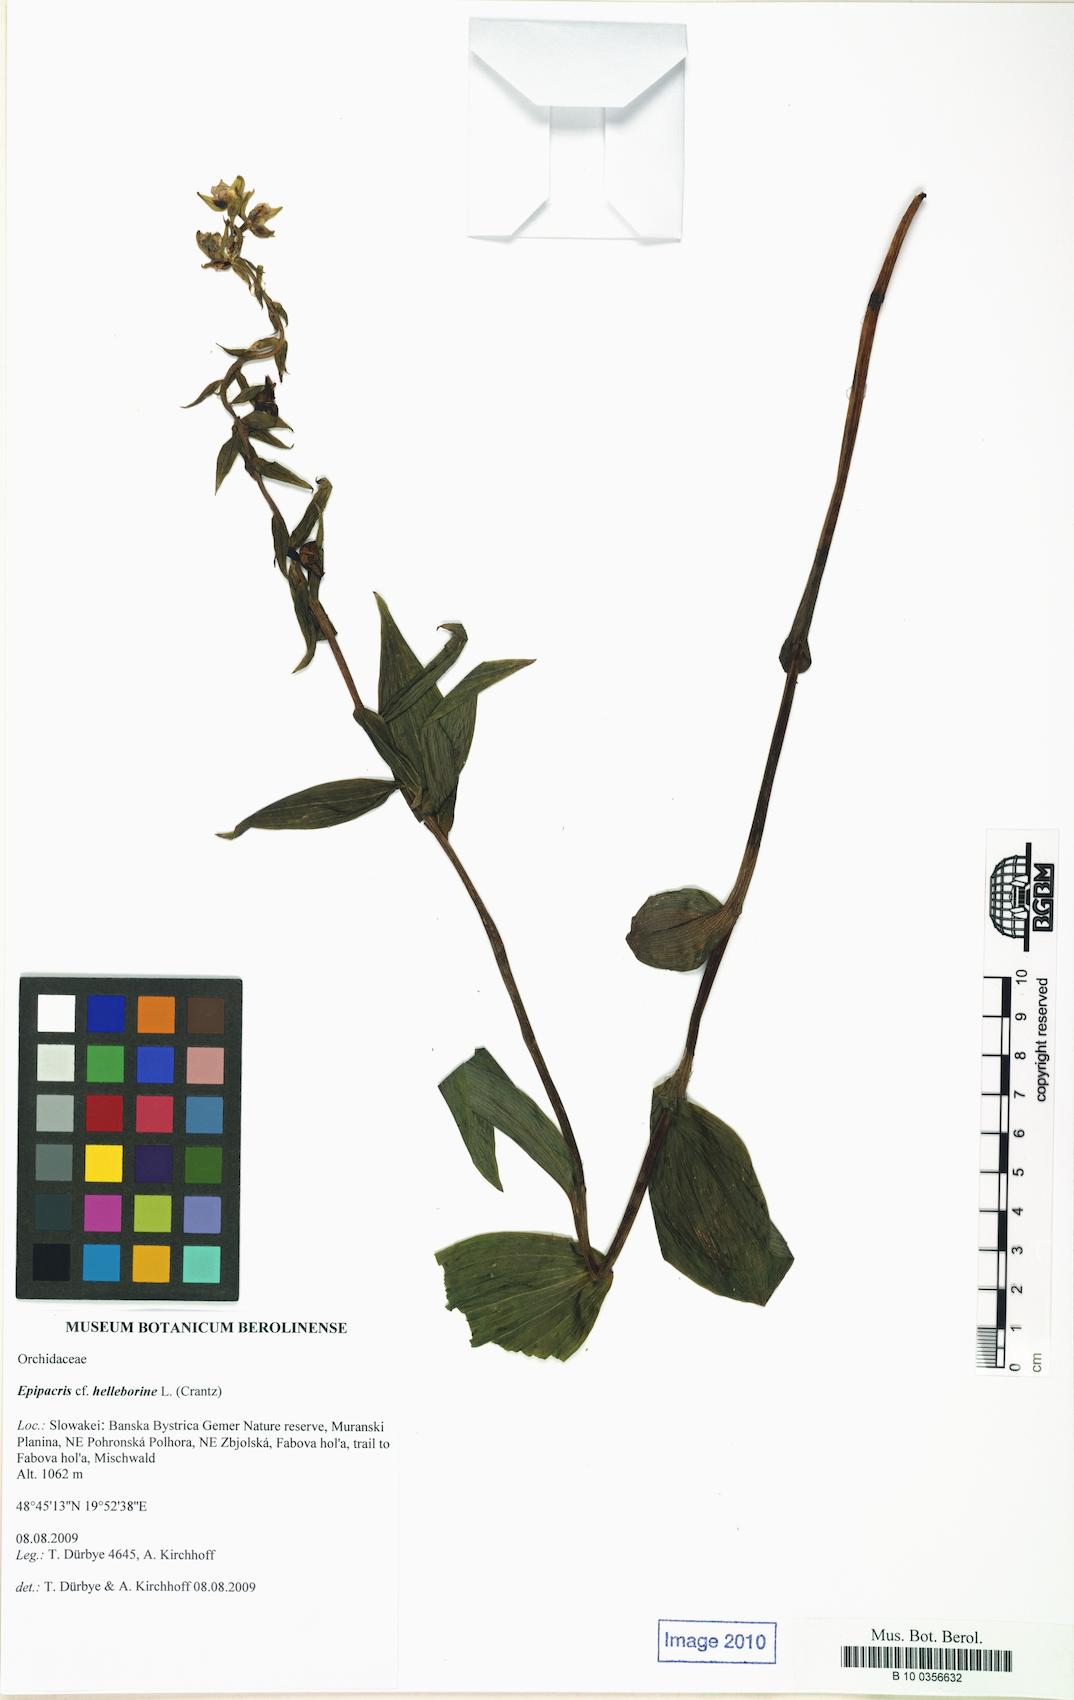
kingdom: Plantae
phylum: Tracheophyta
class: Liliopsida
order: Asparagales
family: Orchidaceae
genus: Epipactis
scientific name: Epipactis helleborine
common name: Broad-leaved helleborine
